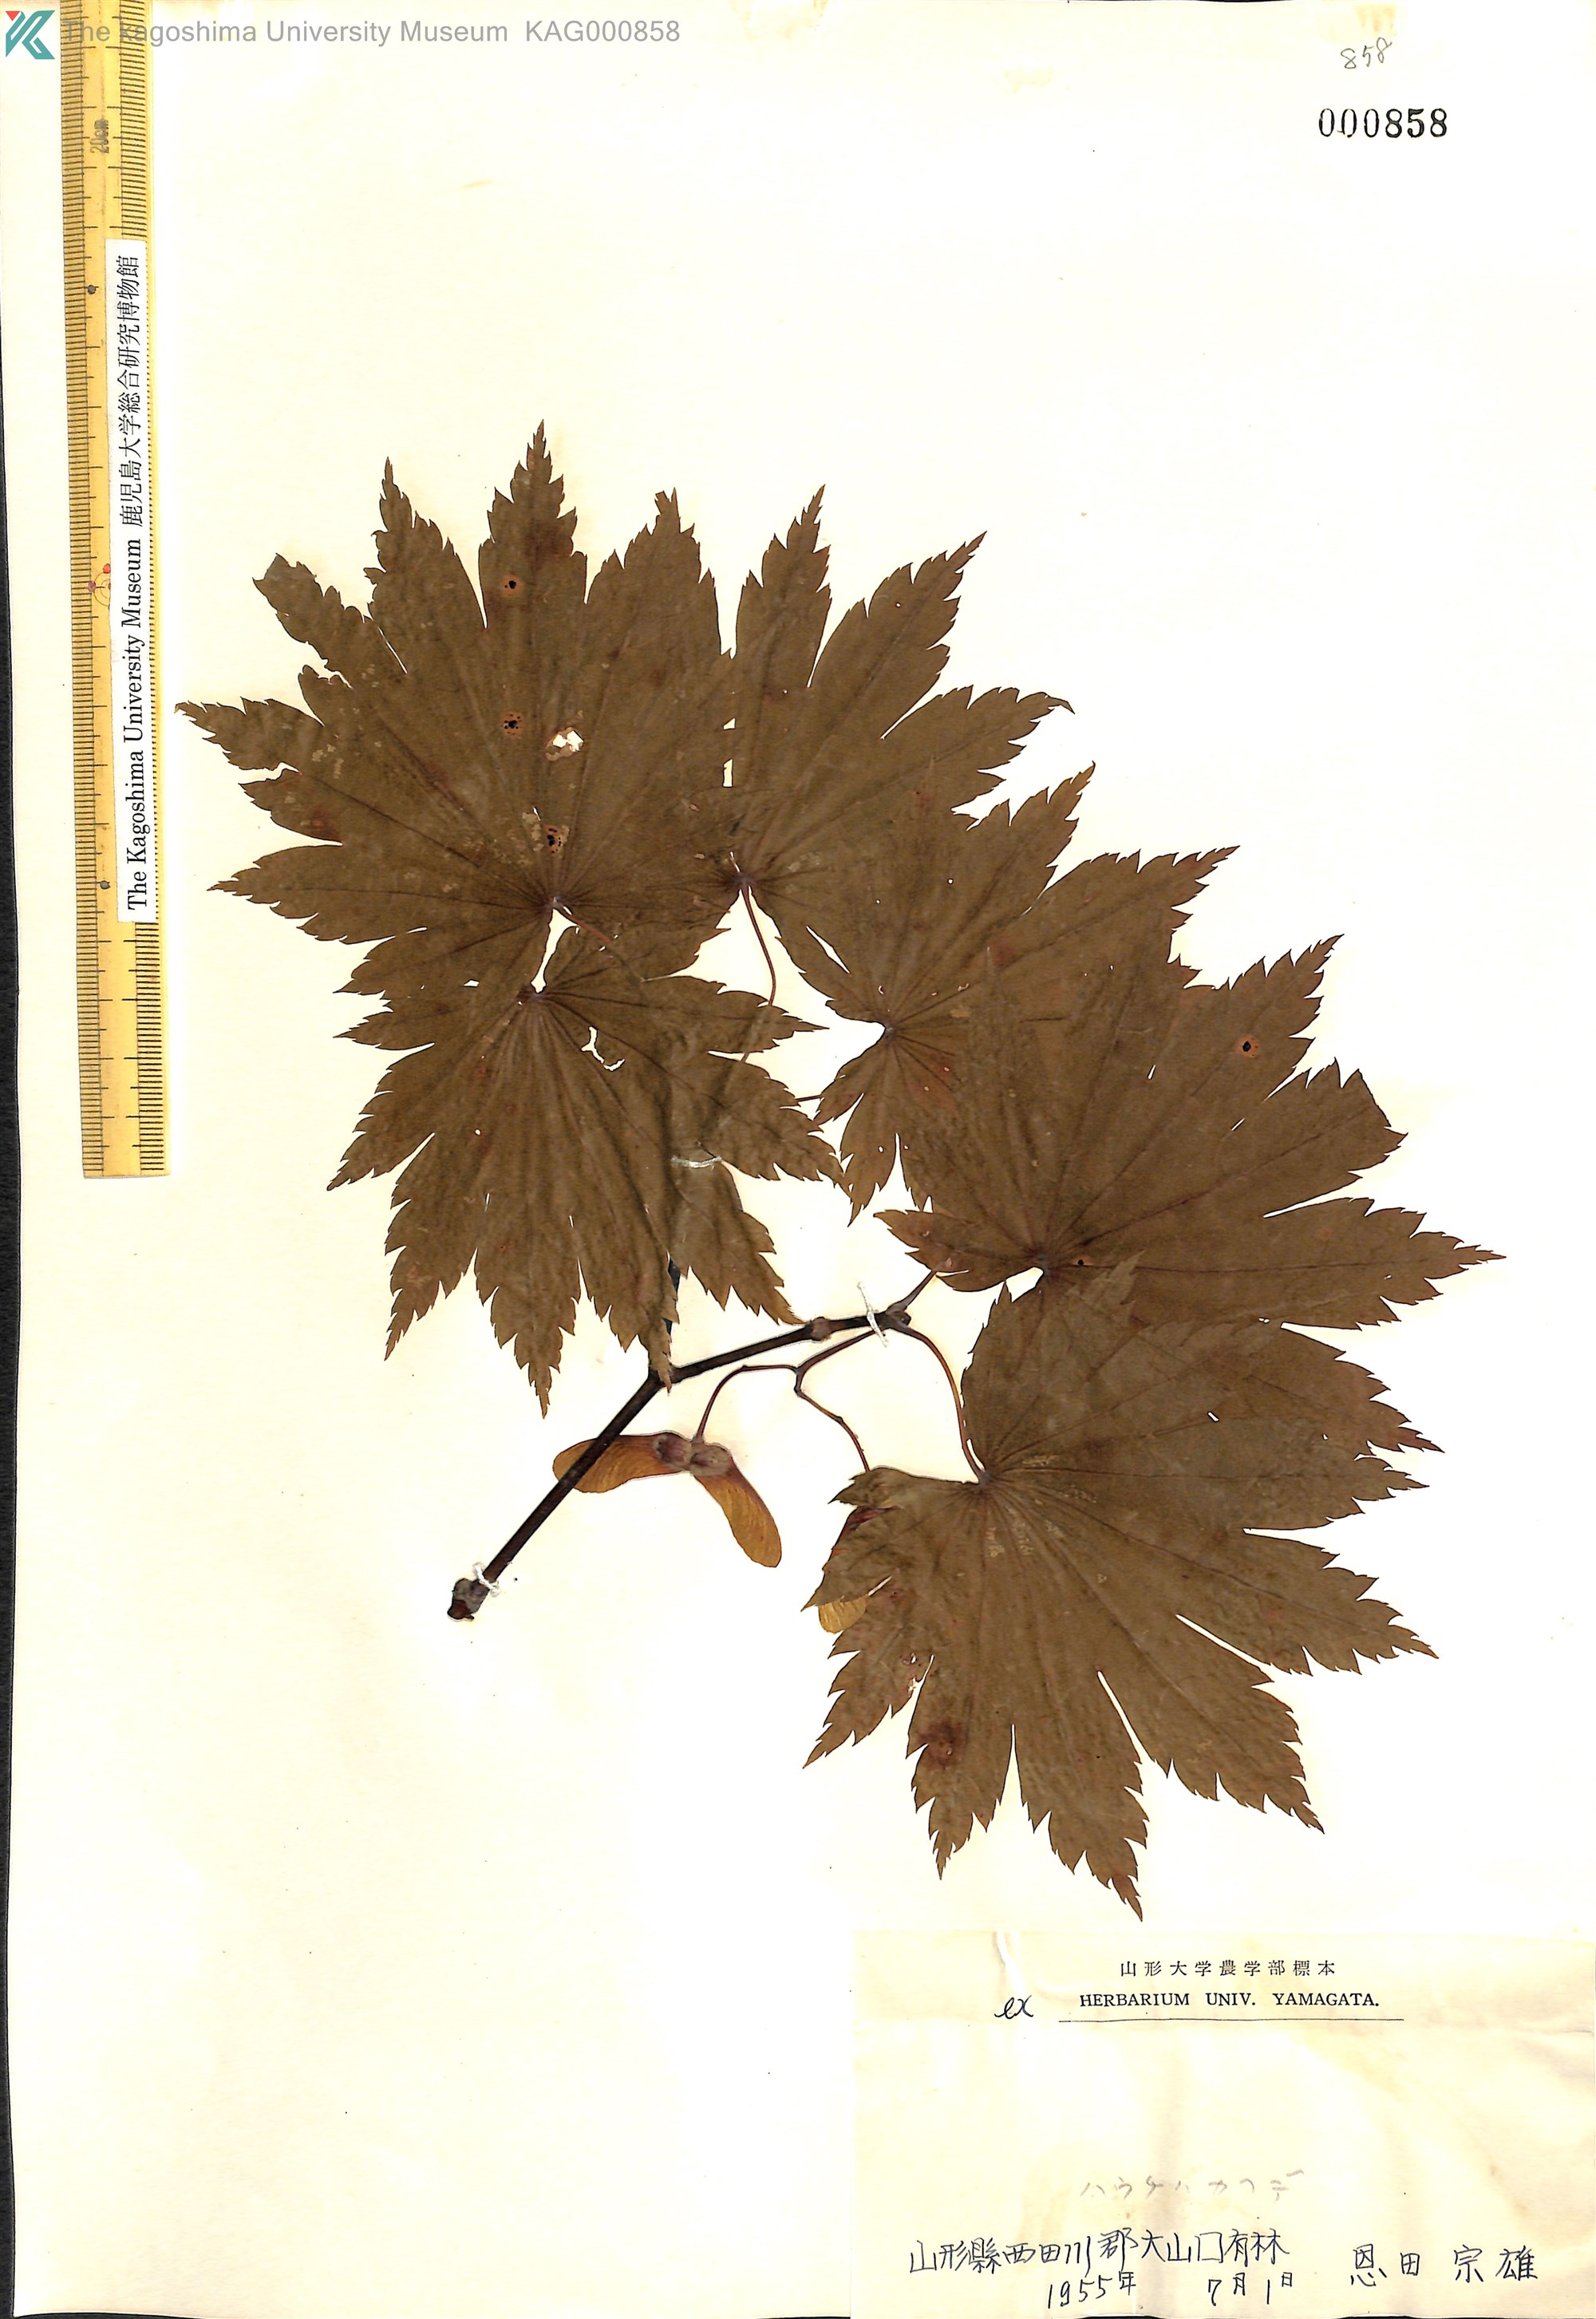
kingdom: Plantae
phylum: Tracheophyta
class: Magnoliopsida
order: Sapindales
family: Sapindaceae
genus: Acer
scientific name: Acer japonicum
